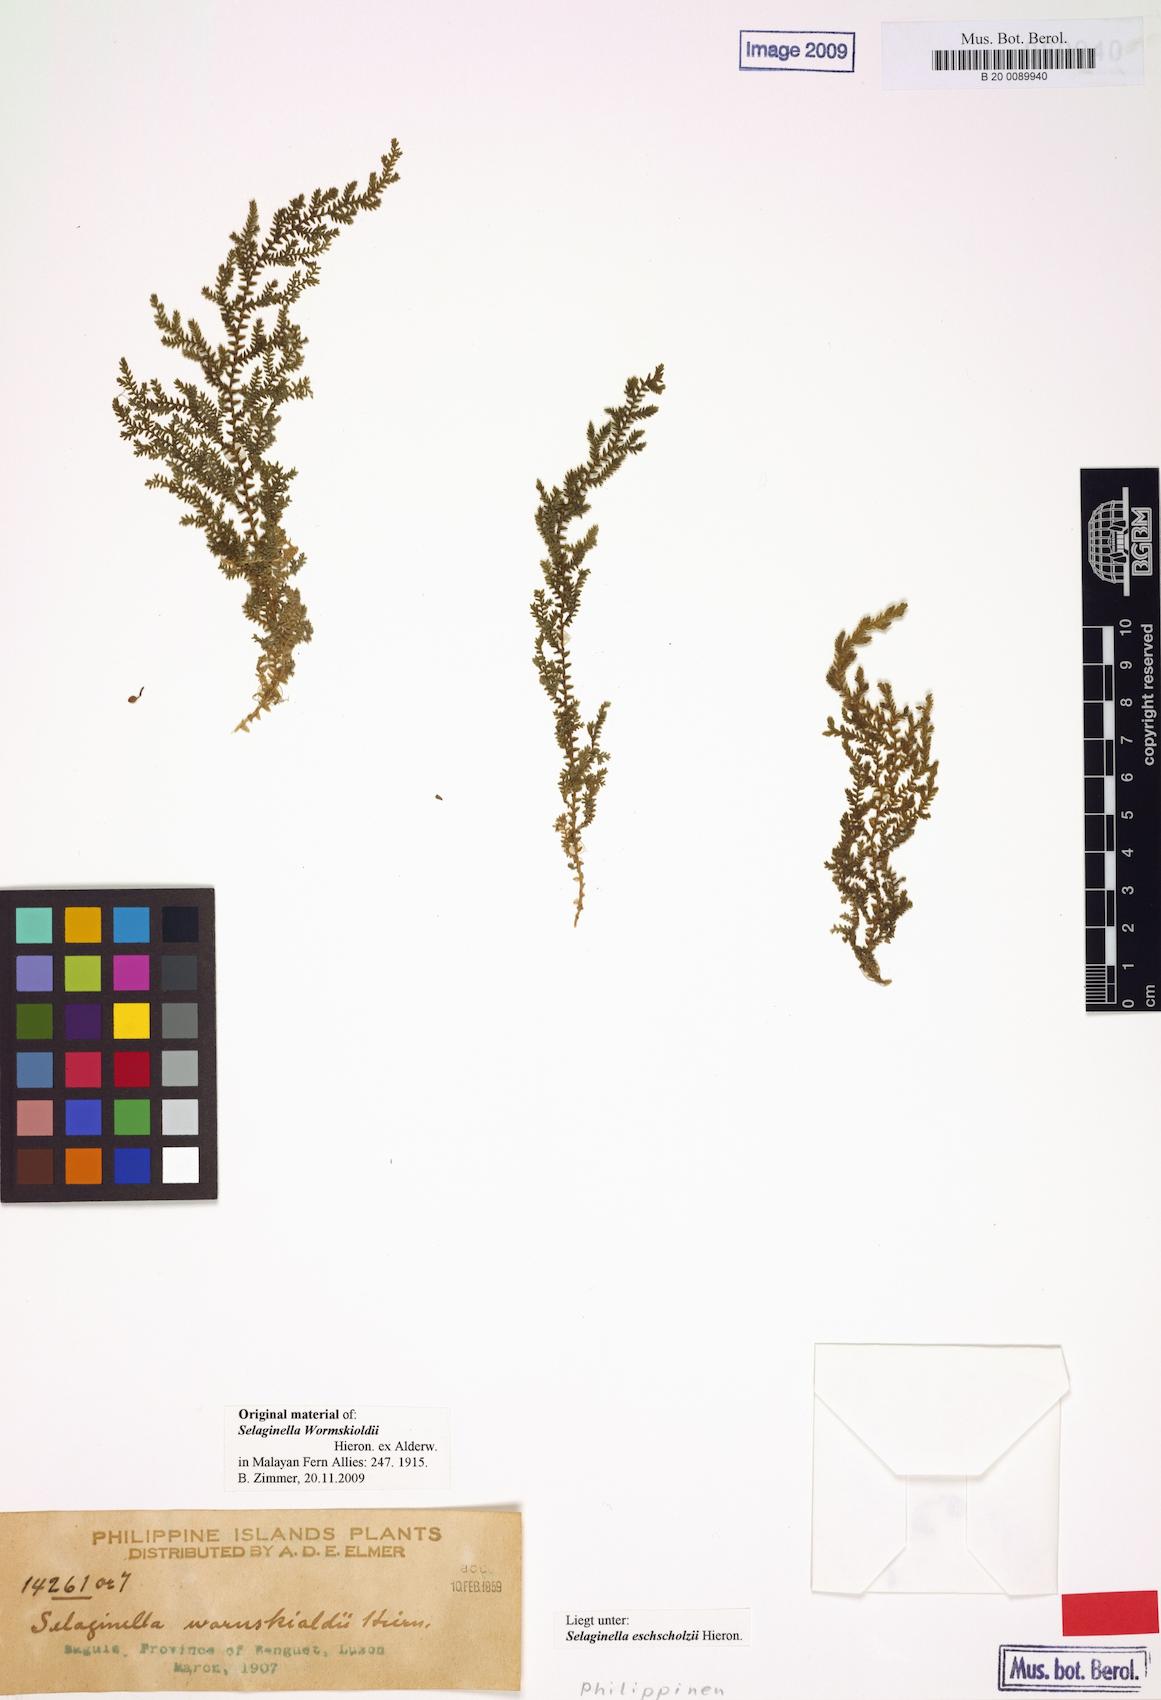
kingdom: Plantae
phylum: Tracheophyta
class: Lycopodiopsida
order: Selaginellales
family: Selaginellaceae
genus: Selaginella
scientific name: Selaginella eschscholzii
